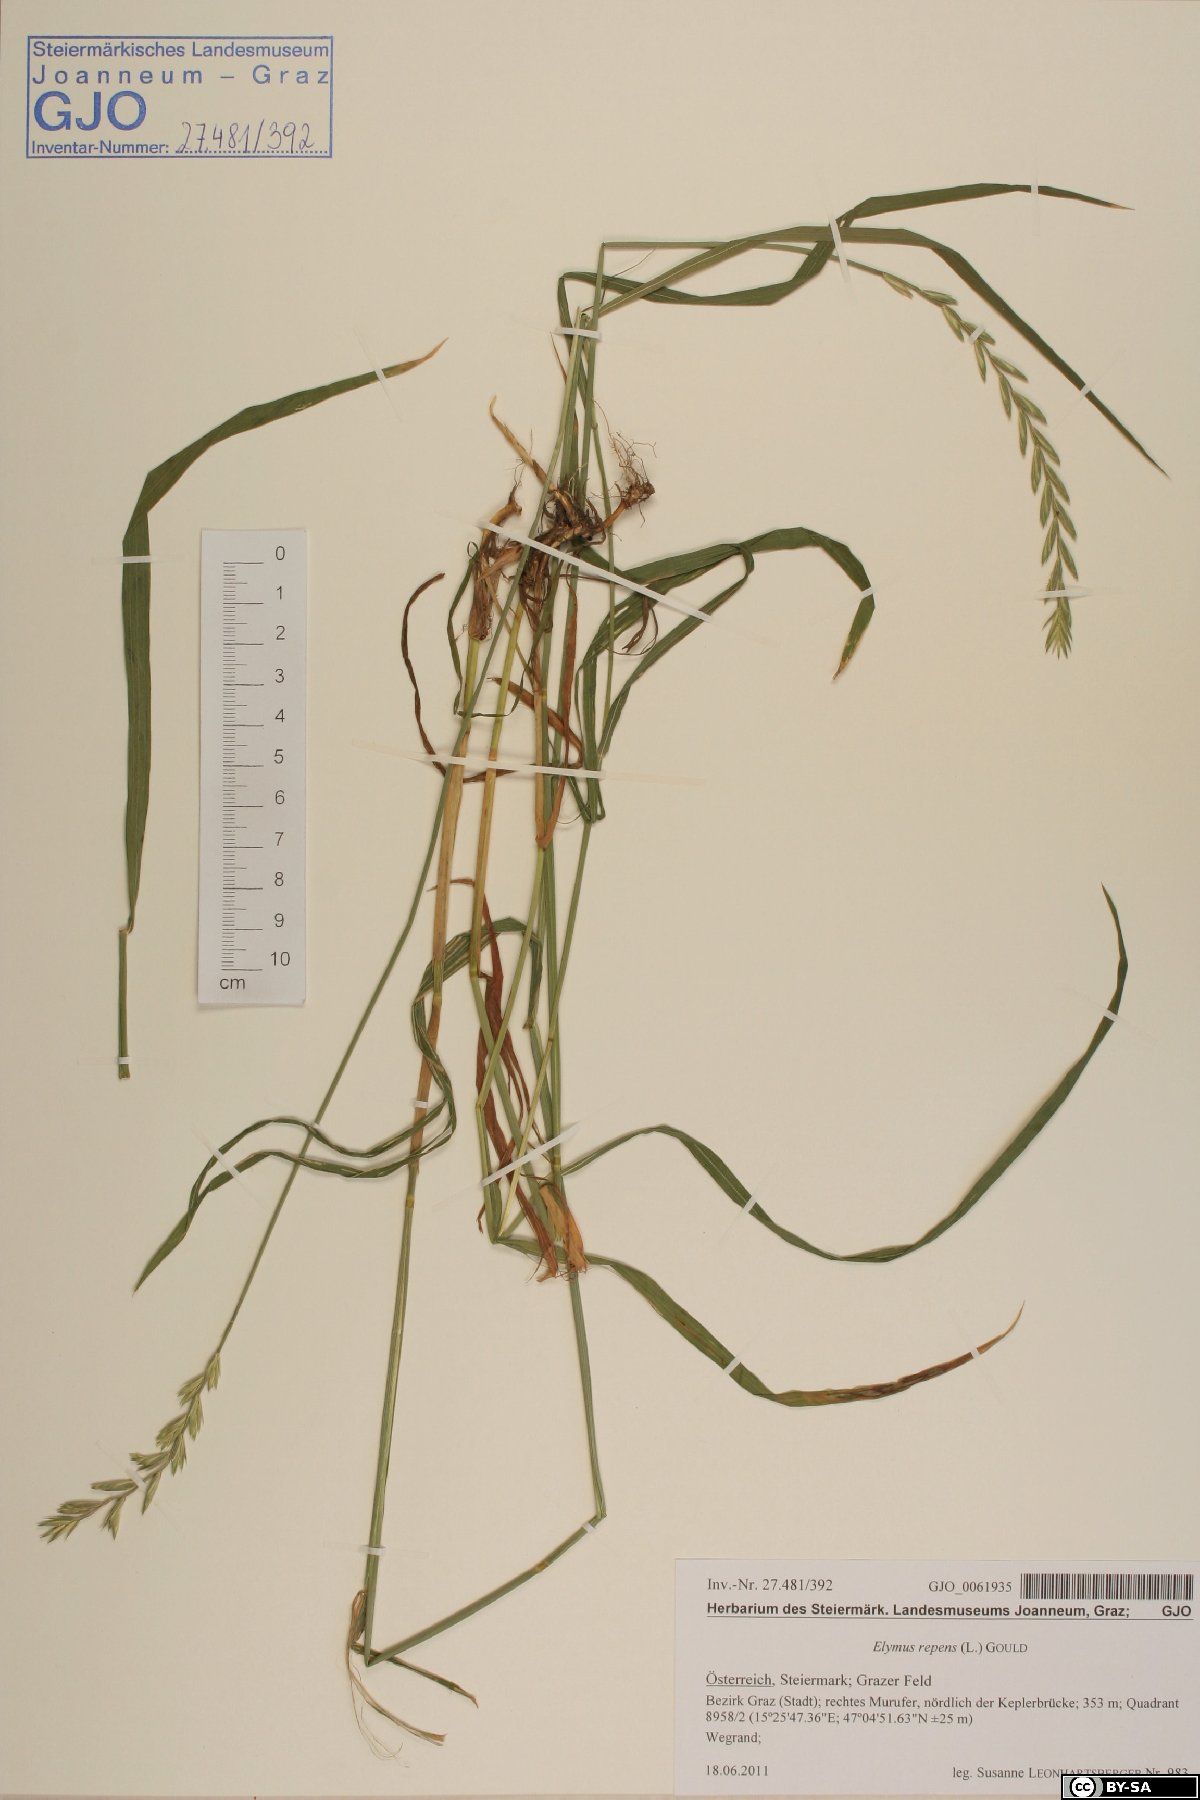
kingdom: Plantae
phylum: Tracheophyta
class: Liliopsida
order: Poales
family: Poaceae
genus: Elymus
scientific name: Elymus repens
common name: Quackgrass
